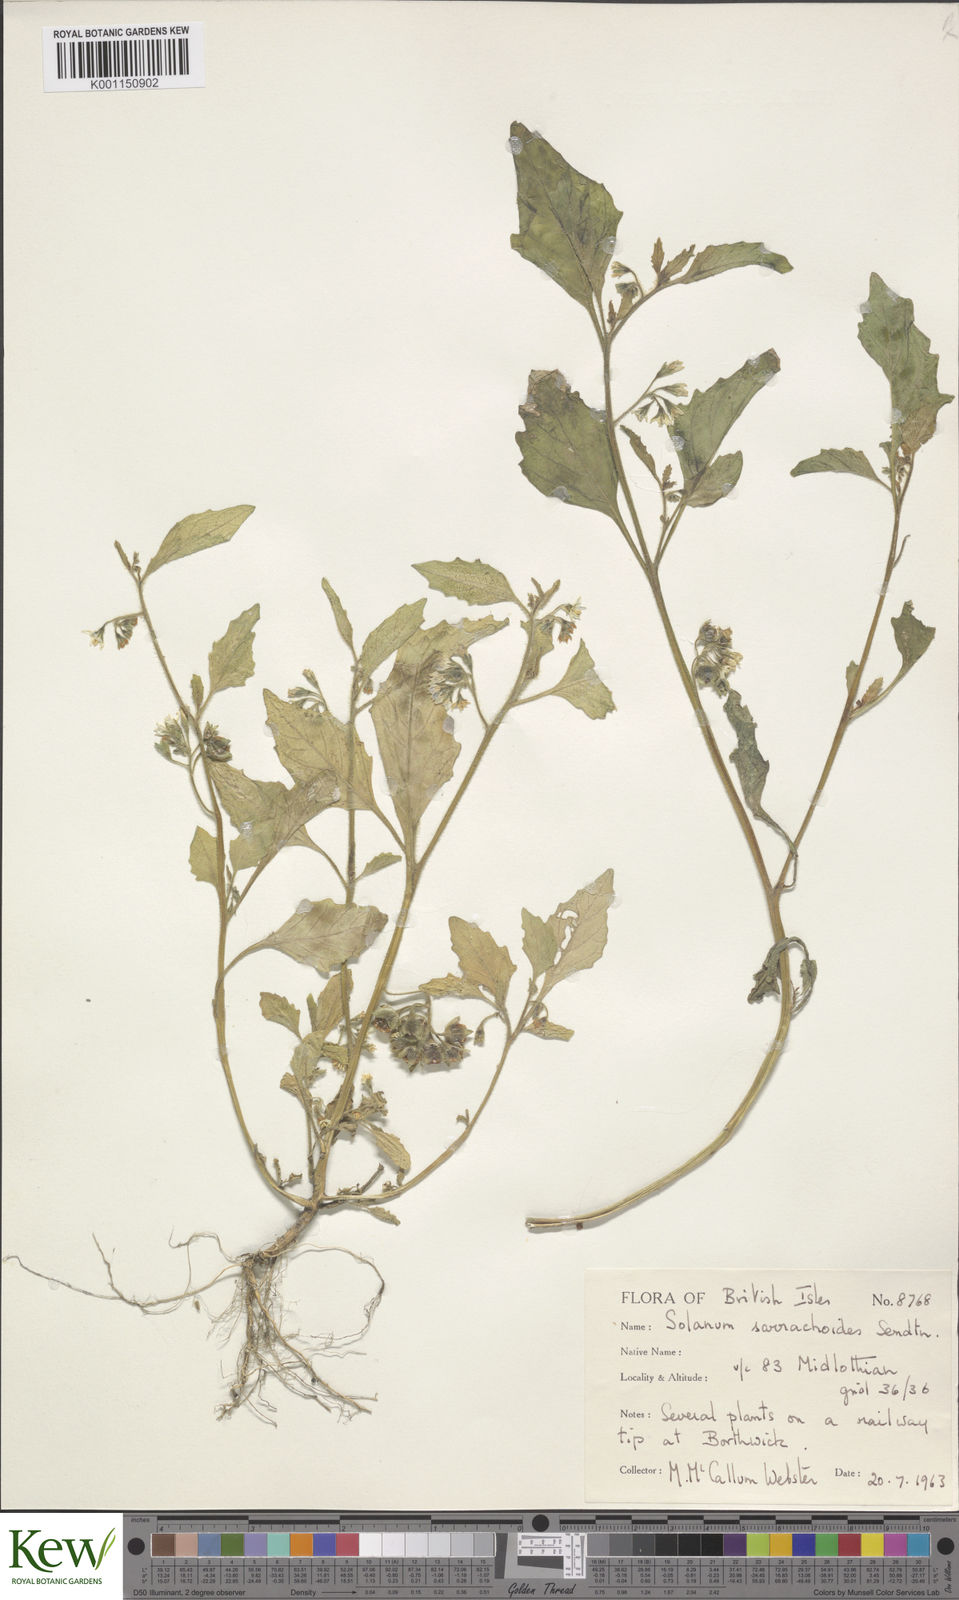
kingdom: Plantae
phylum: Tracheophyta
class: Magnoliopsida
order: Solanales
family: Solanaceae
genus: Solanum
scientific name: Solanum nitidibaccatum
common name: Hairy nightshade
